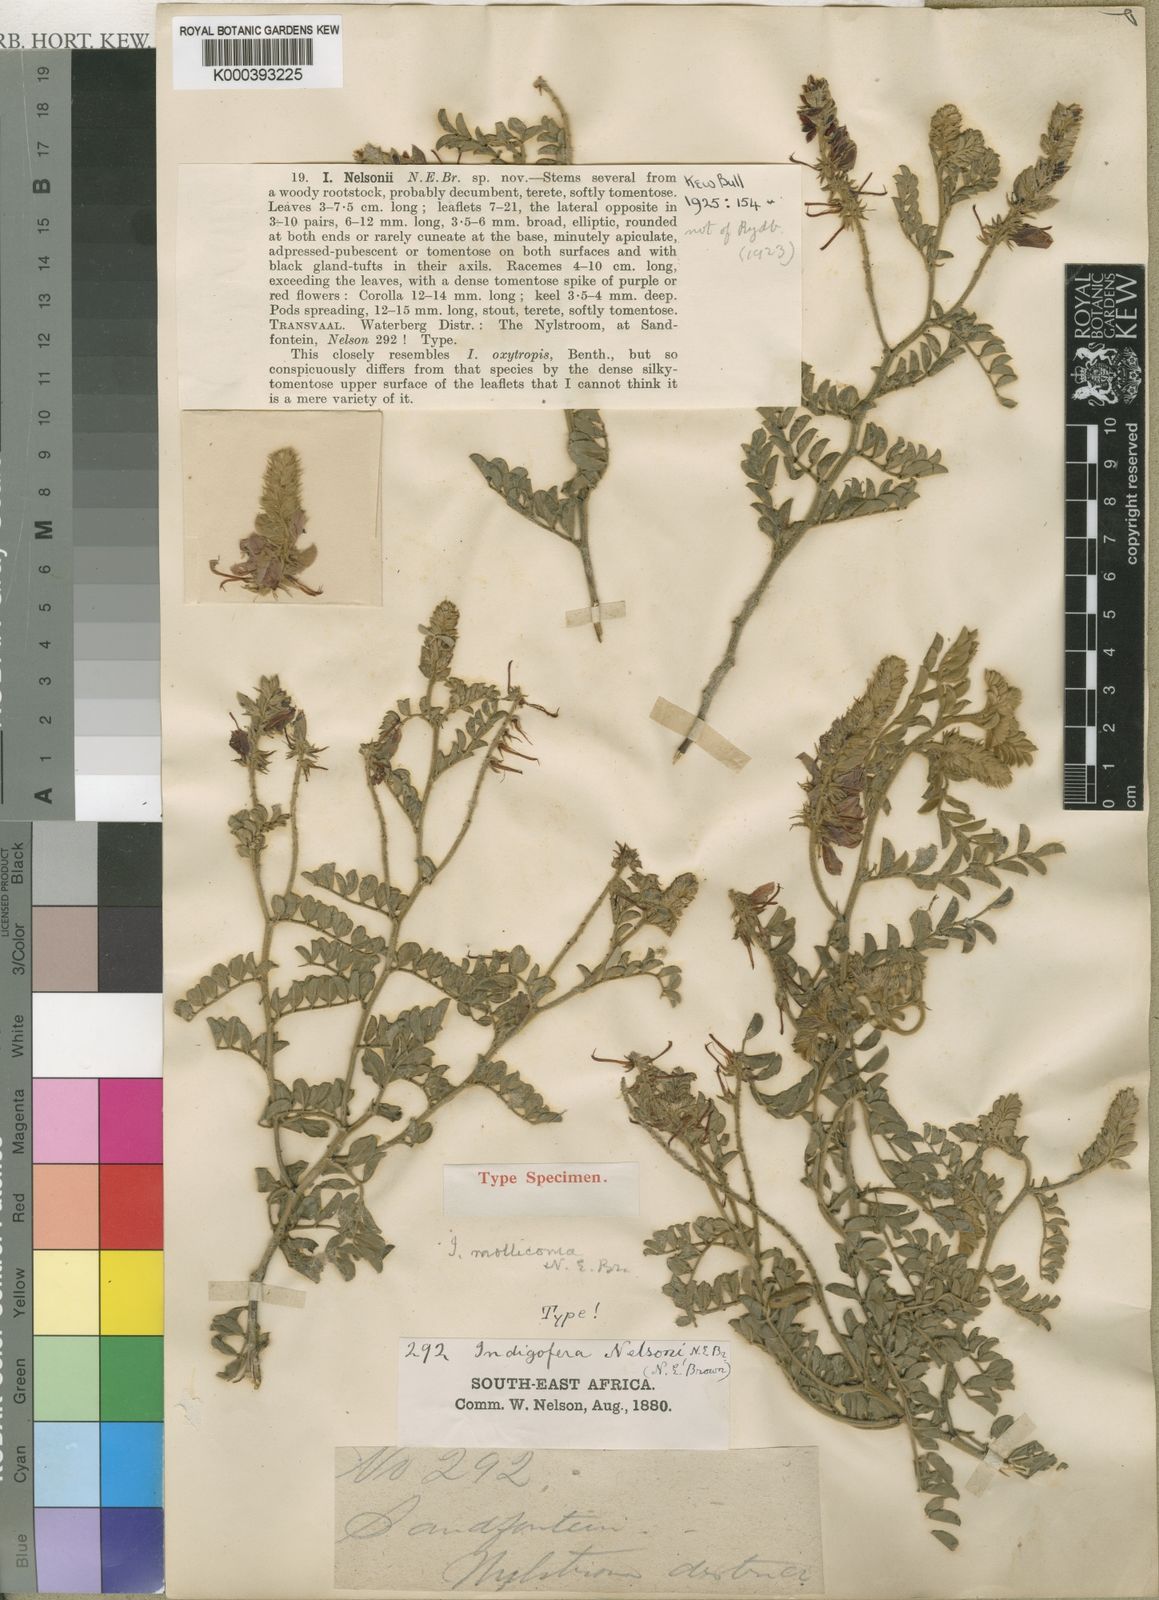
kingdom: Plantae
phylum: Tracheophyta
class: Magnoliopsida
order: Fabales
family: Fabaceae
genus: Indigofera
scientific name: Indigofera mollicoma
